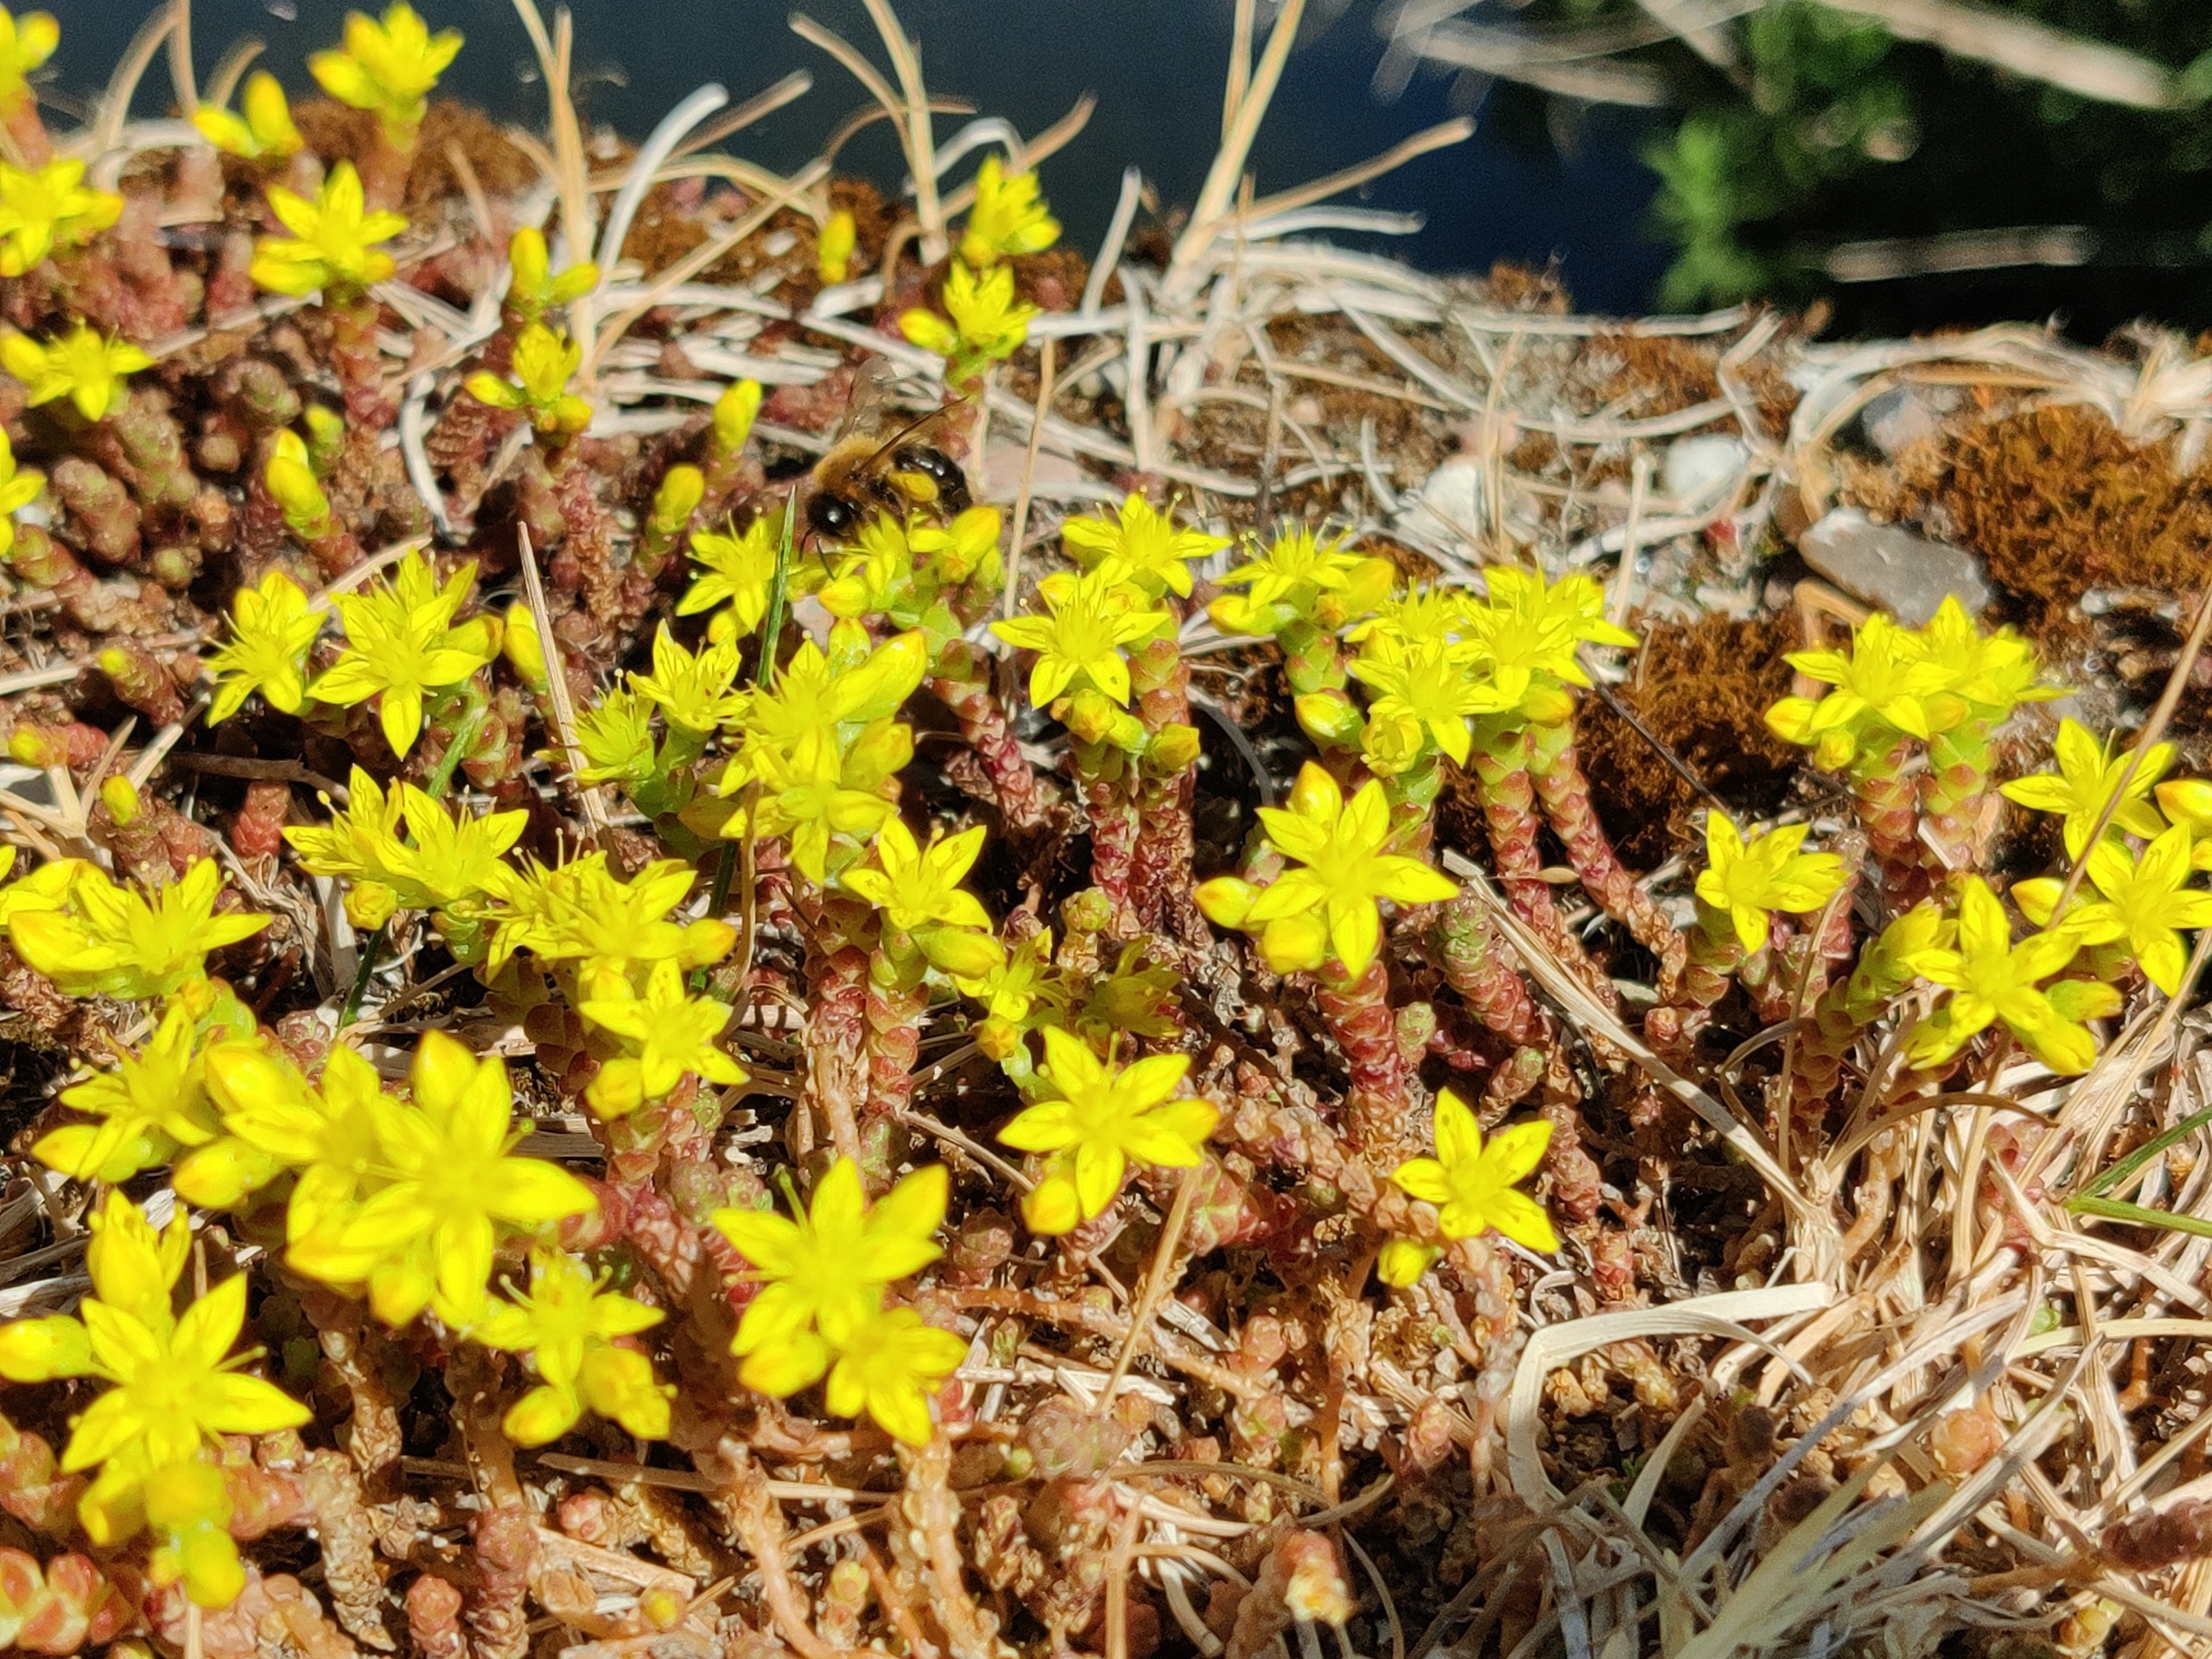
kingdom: Plantae
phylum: Tracheophyta
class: Magnoliopsida
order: Saxifragales
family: Crassulaceae
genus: Sedum
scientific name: Sedum acre
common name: Bidende stenurt
